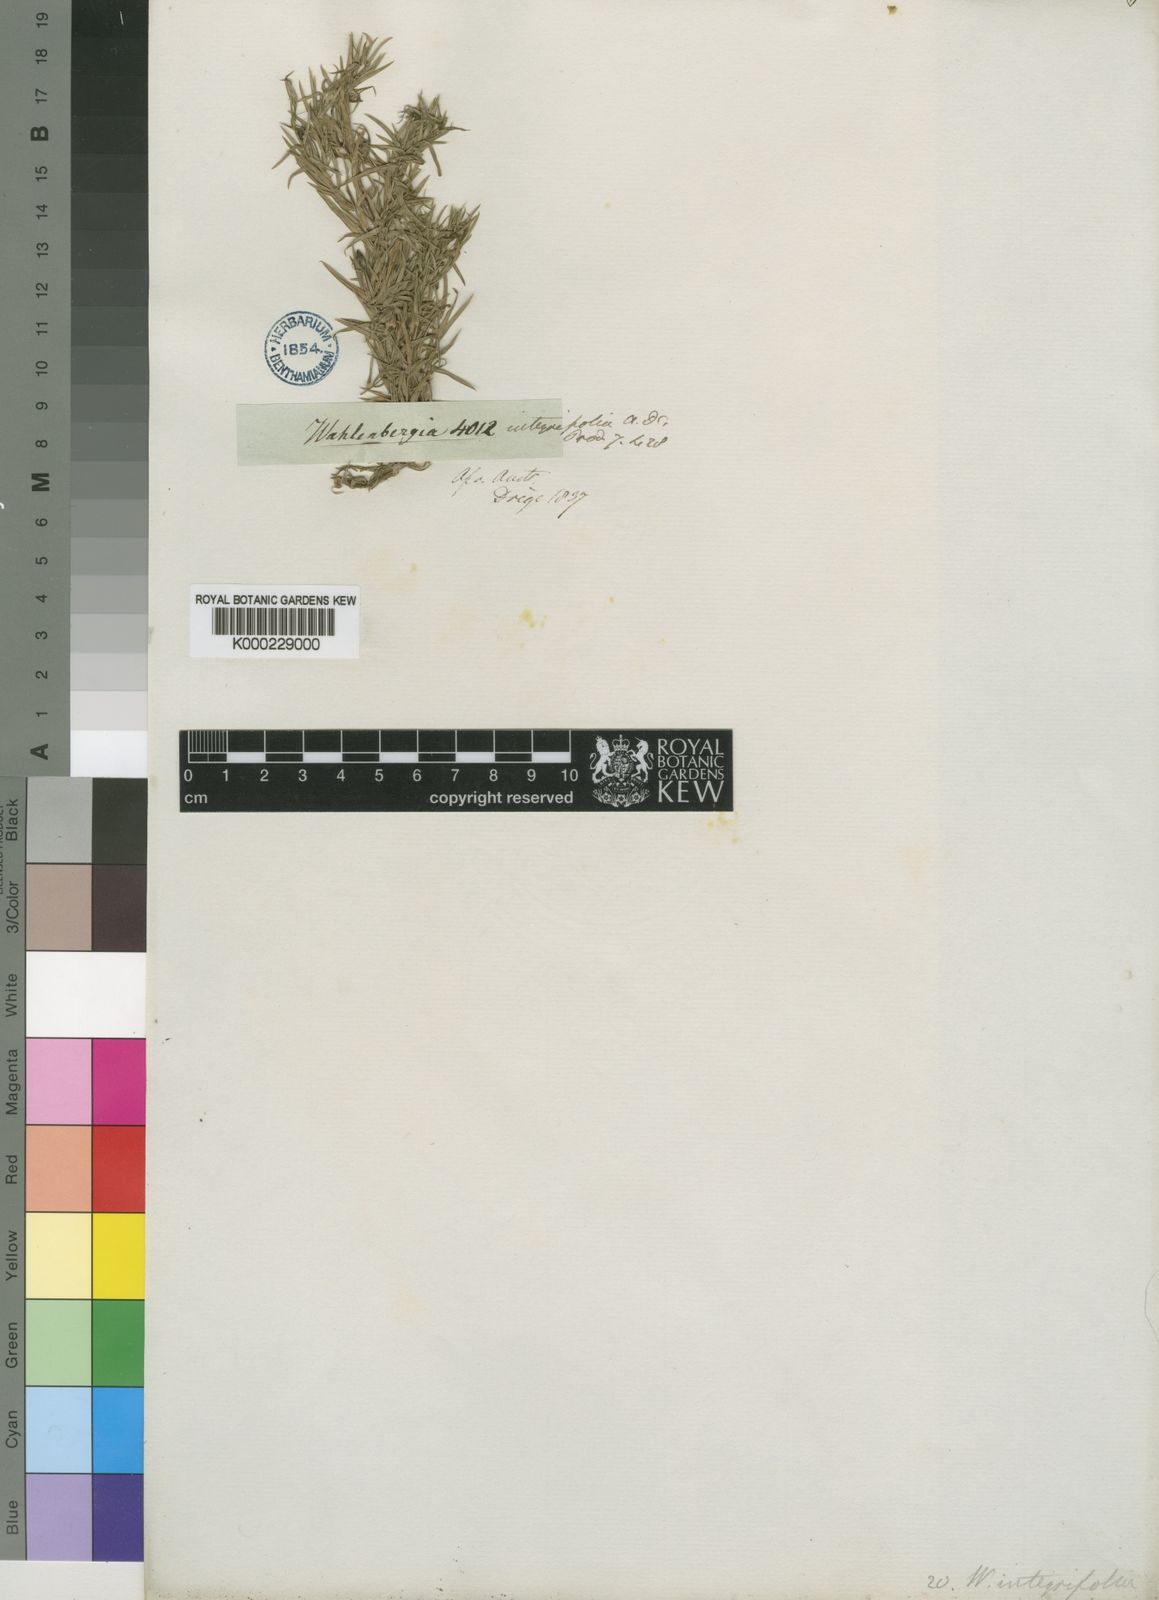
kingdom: Plantae
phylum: Tracheophyta
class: Magnoliopsida
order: Asterales
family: Campanulaceae
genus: Wahlenbergia
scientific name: Wahlenbergia stellarioides
